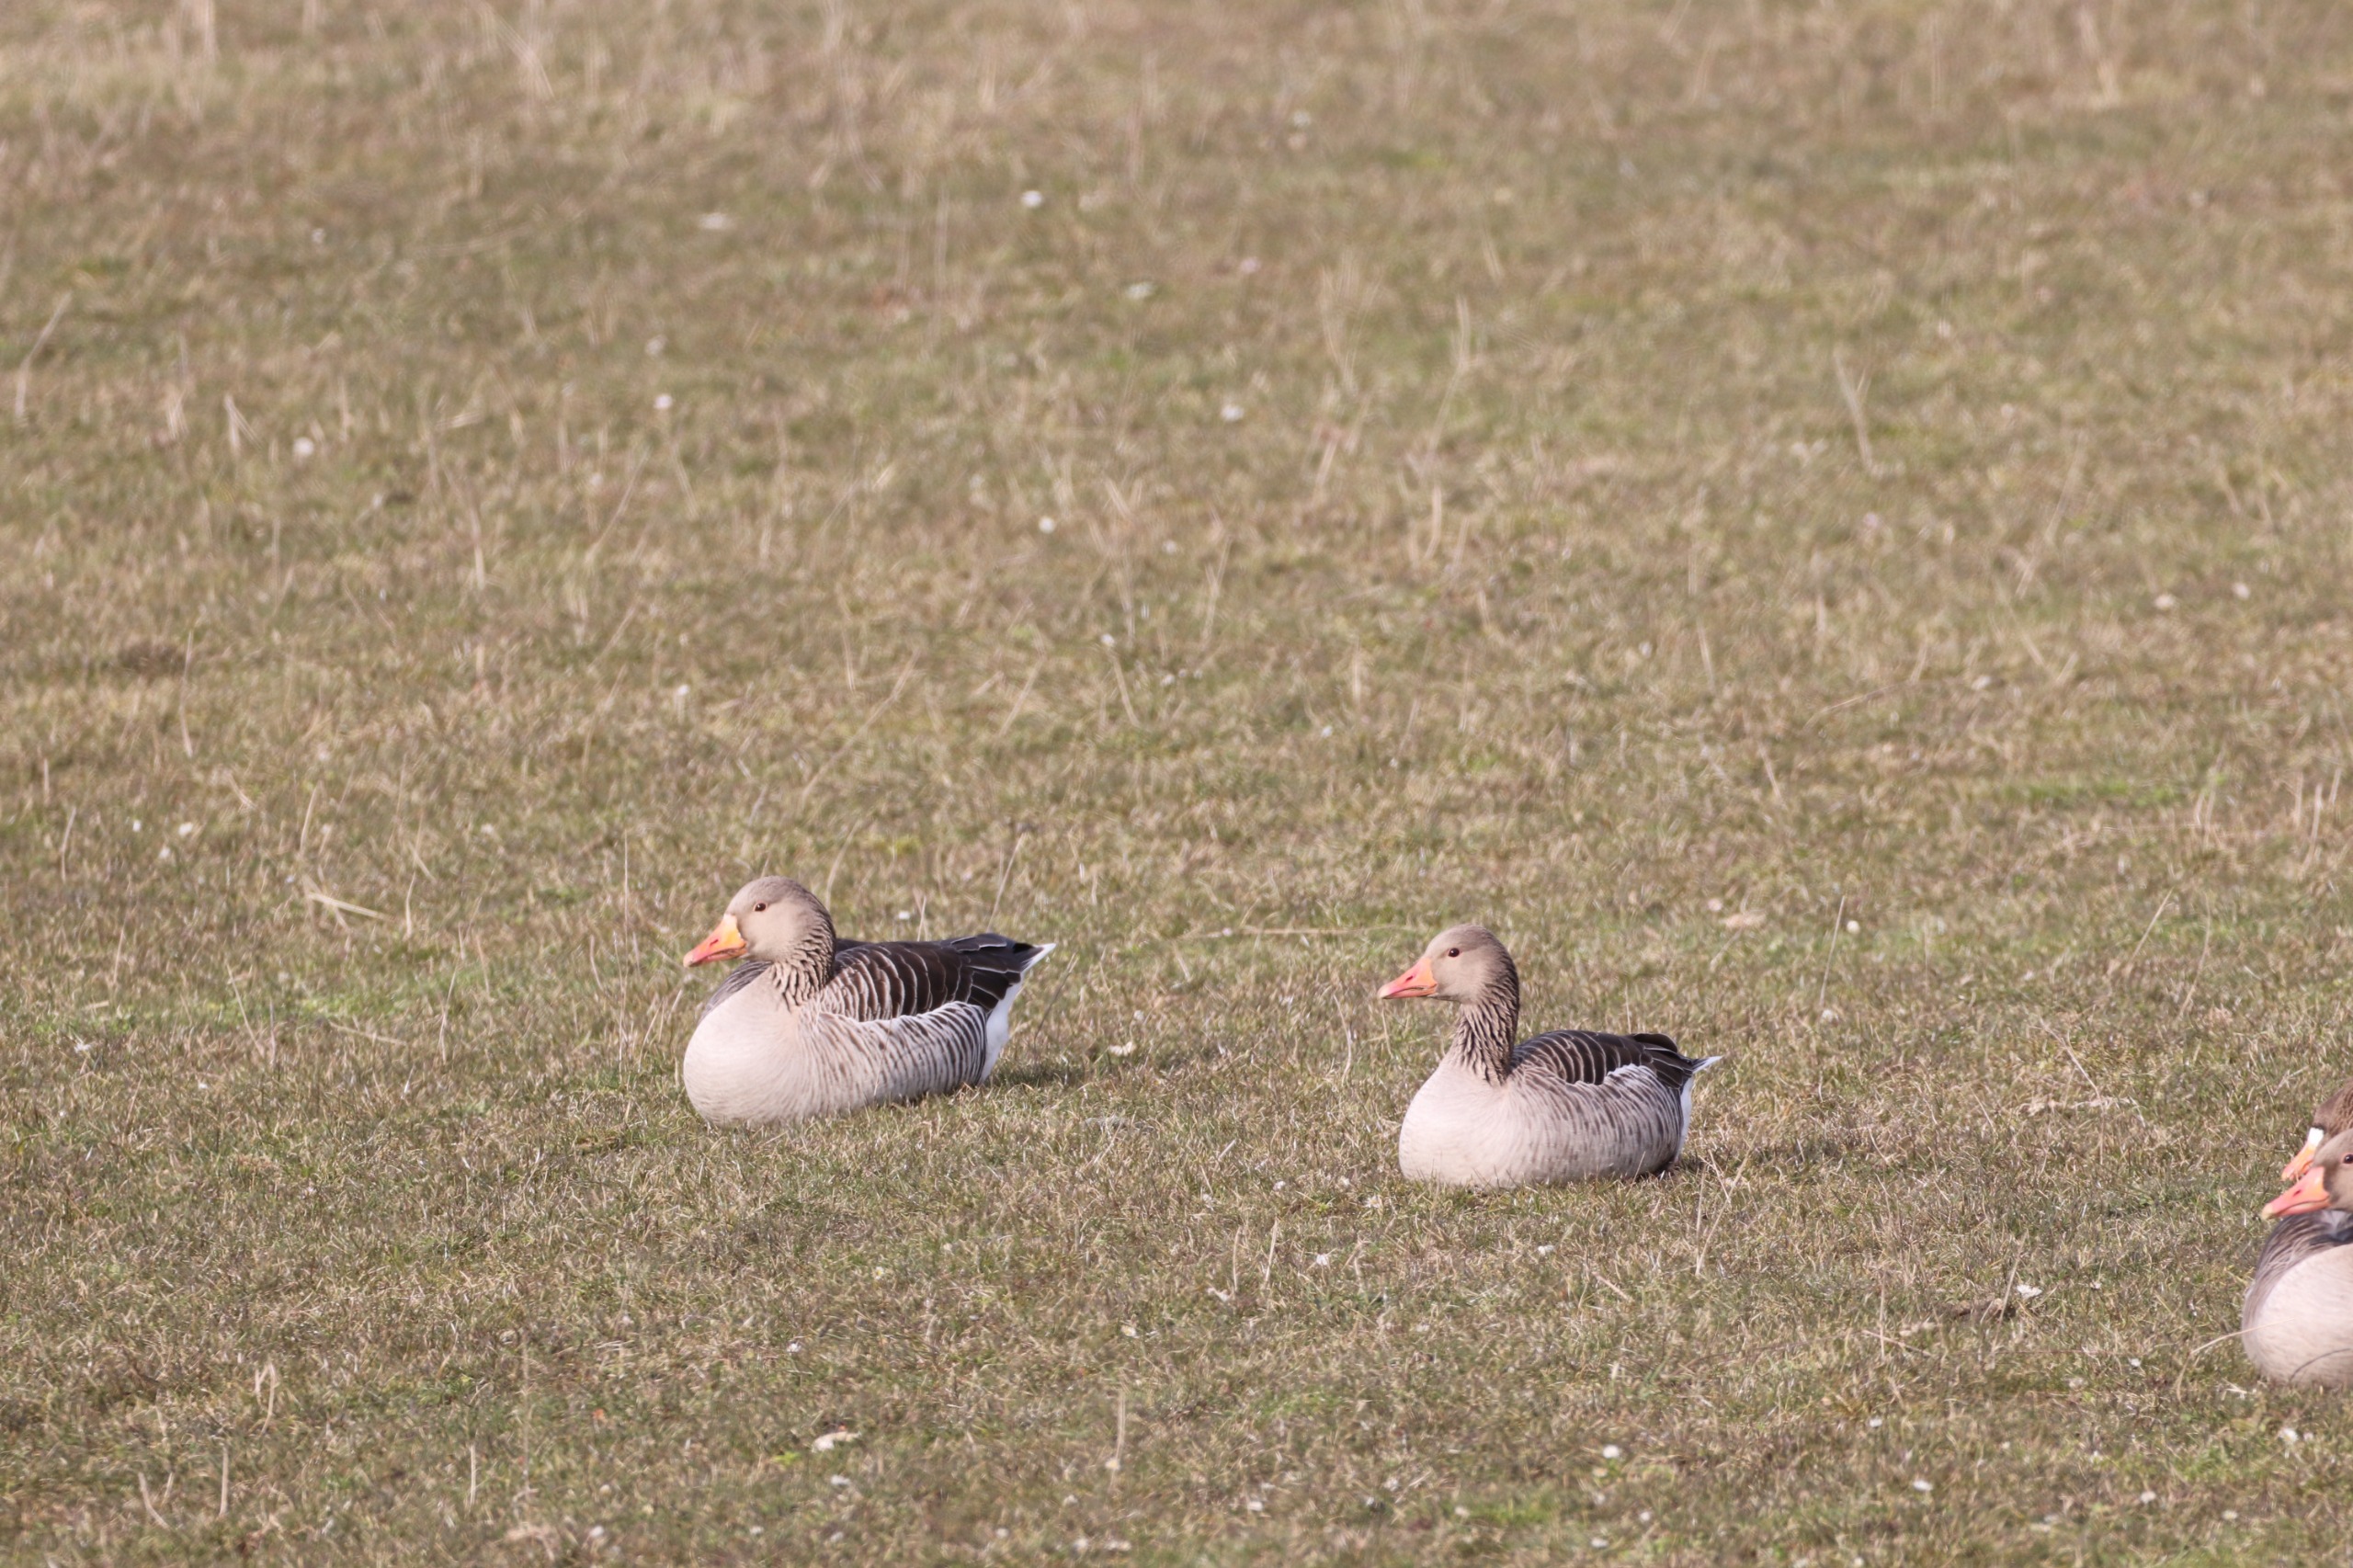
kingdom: Animalia
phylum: Chordata
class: Aves
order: Anseriformes
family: Anatidae
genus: Anser
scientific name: Anser anser
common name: Grågås
